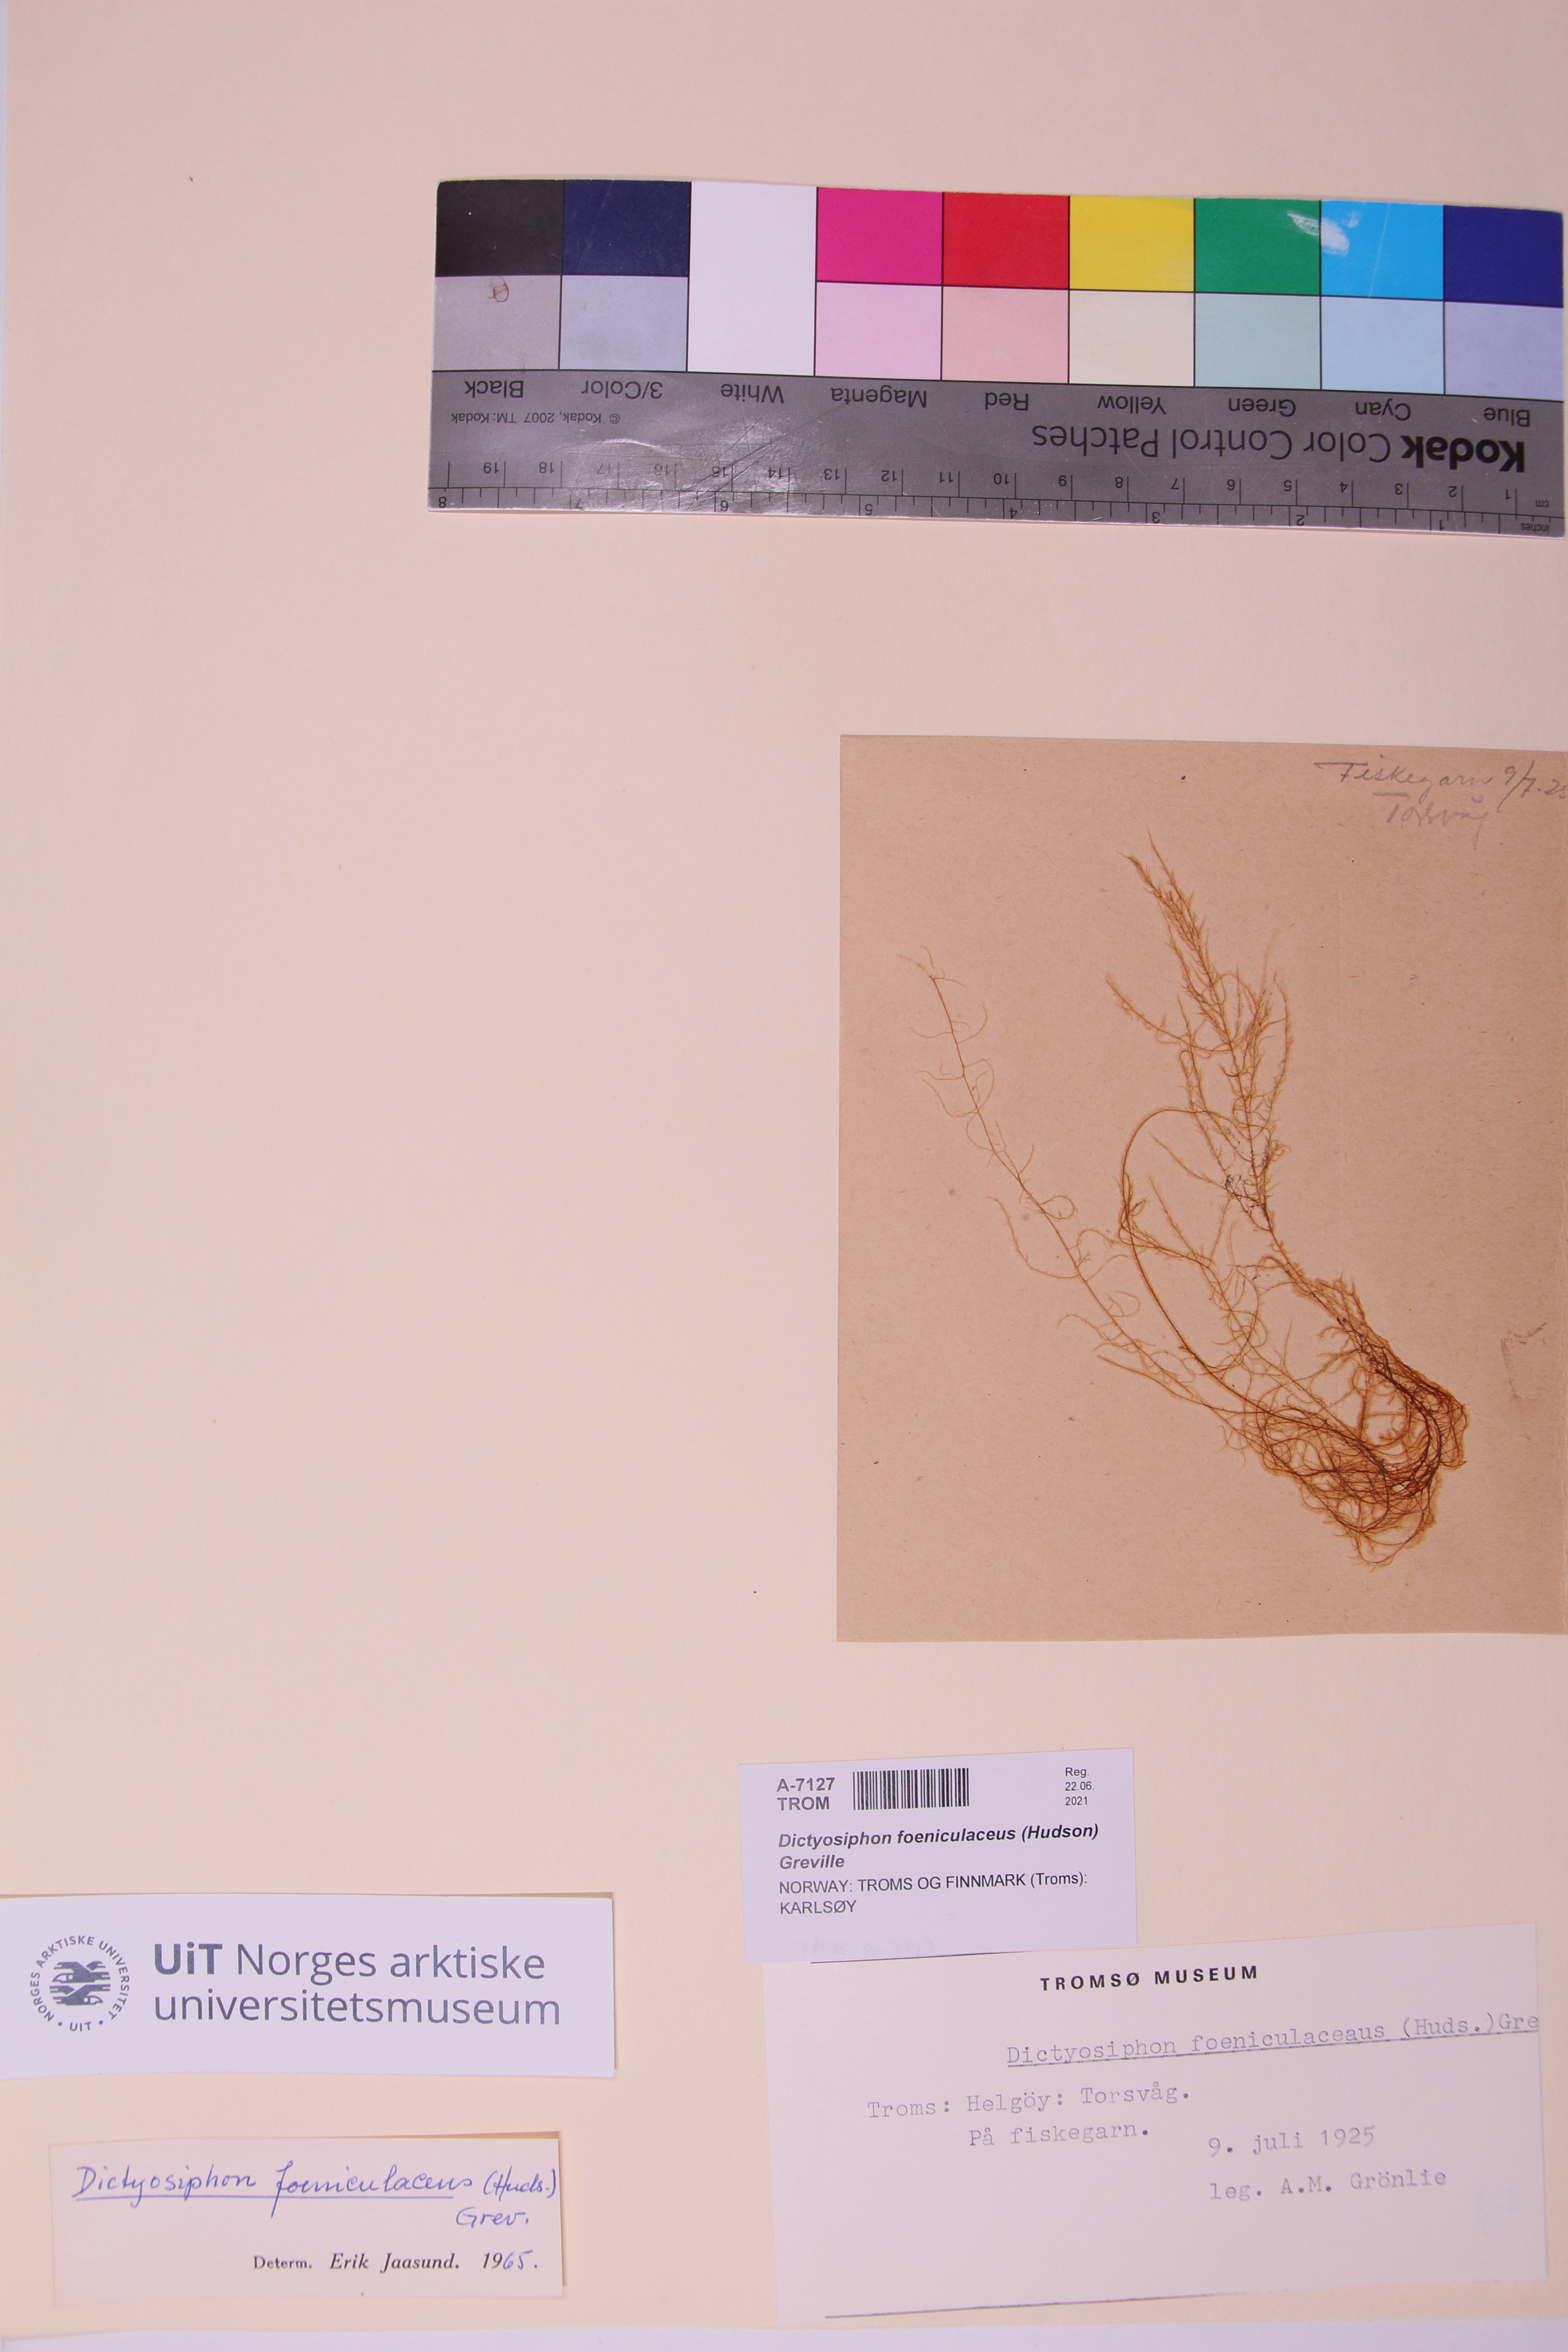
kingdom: Chromista
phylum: Ochrophyta
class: Phaeophyceae
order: Ectocarpales
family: Chordariaceae
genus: Dictyosiphon
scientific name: Dictyosiphon foeniculaceus
